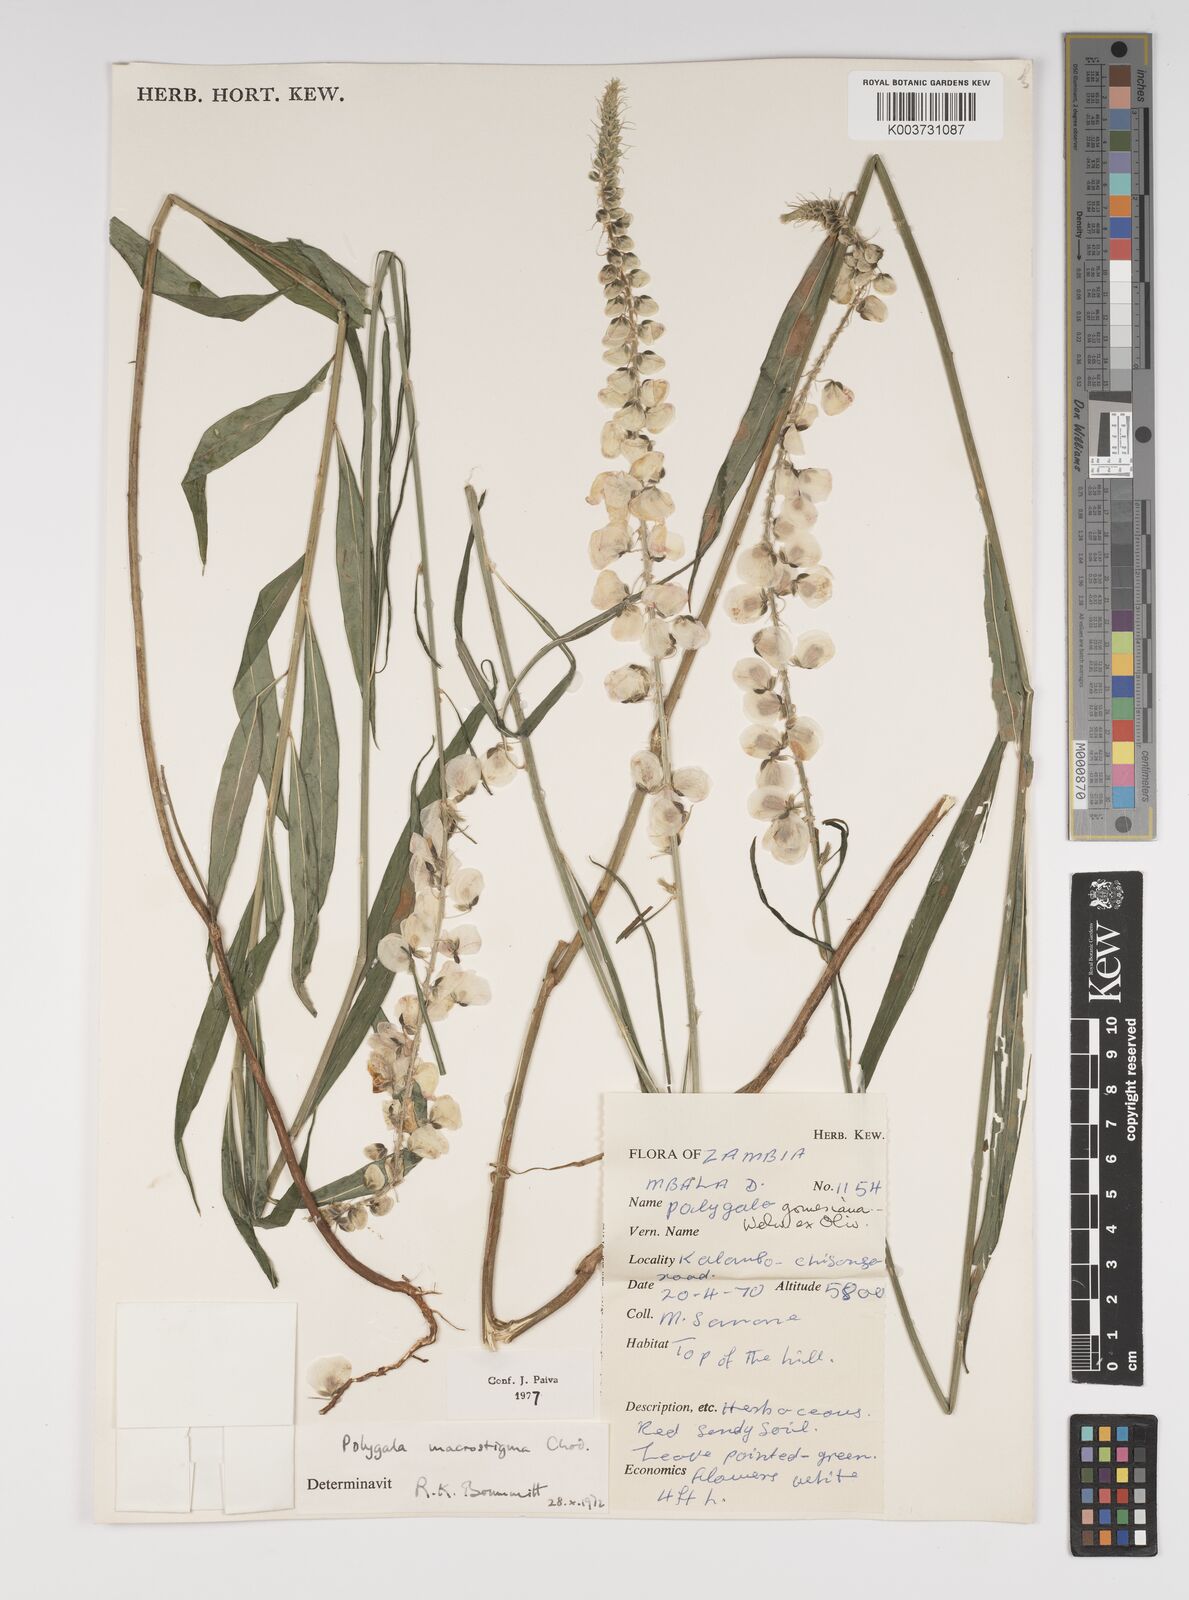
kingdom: Plantae
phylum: Tracheophyta
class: Magnoliopsida
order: Fabales
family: Polygalaceae
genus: Polygala
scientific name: Polygala macrostigma
